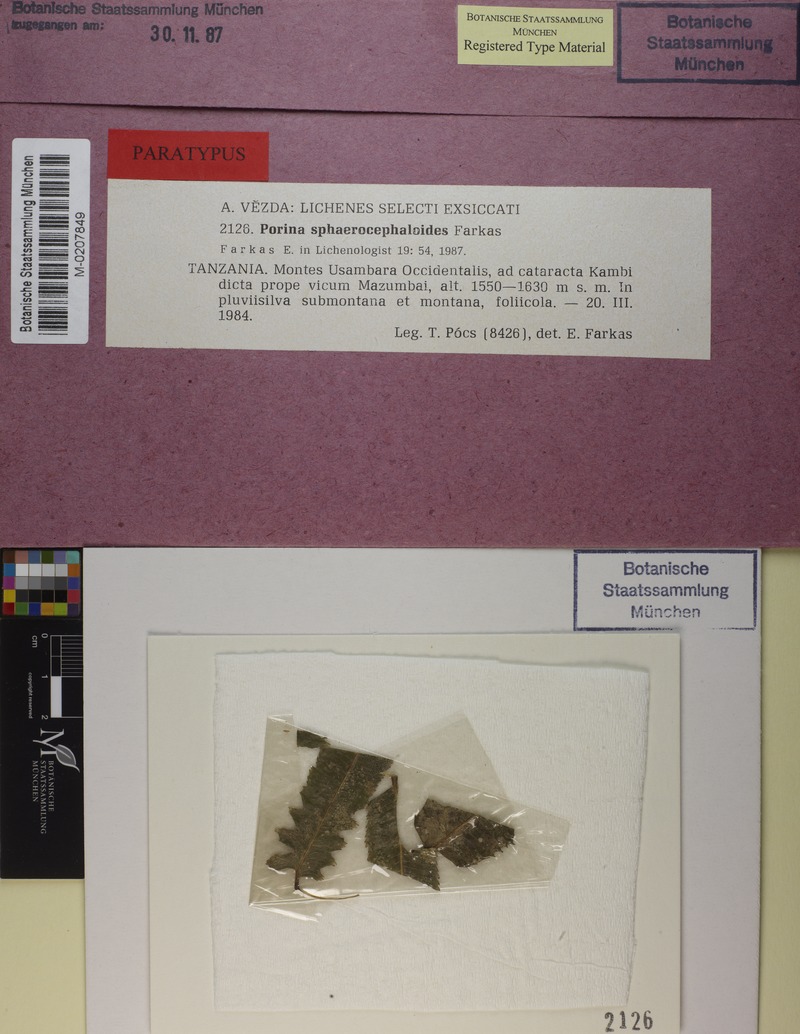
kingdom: Fungi
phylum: Ascomycota
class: Lecanoromycetes
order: Pertusariales
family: Pertusariaceae
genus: Porina
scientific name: Porina
